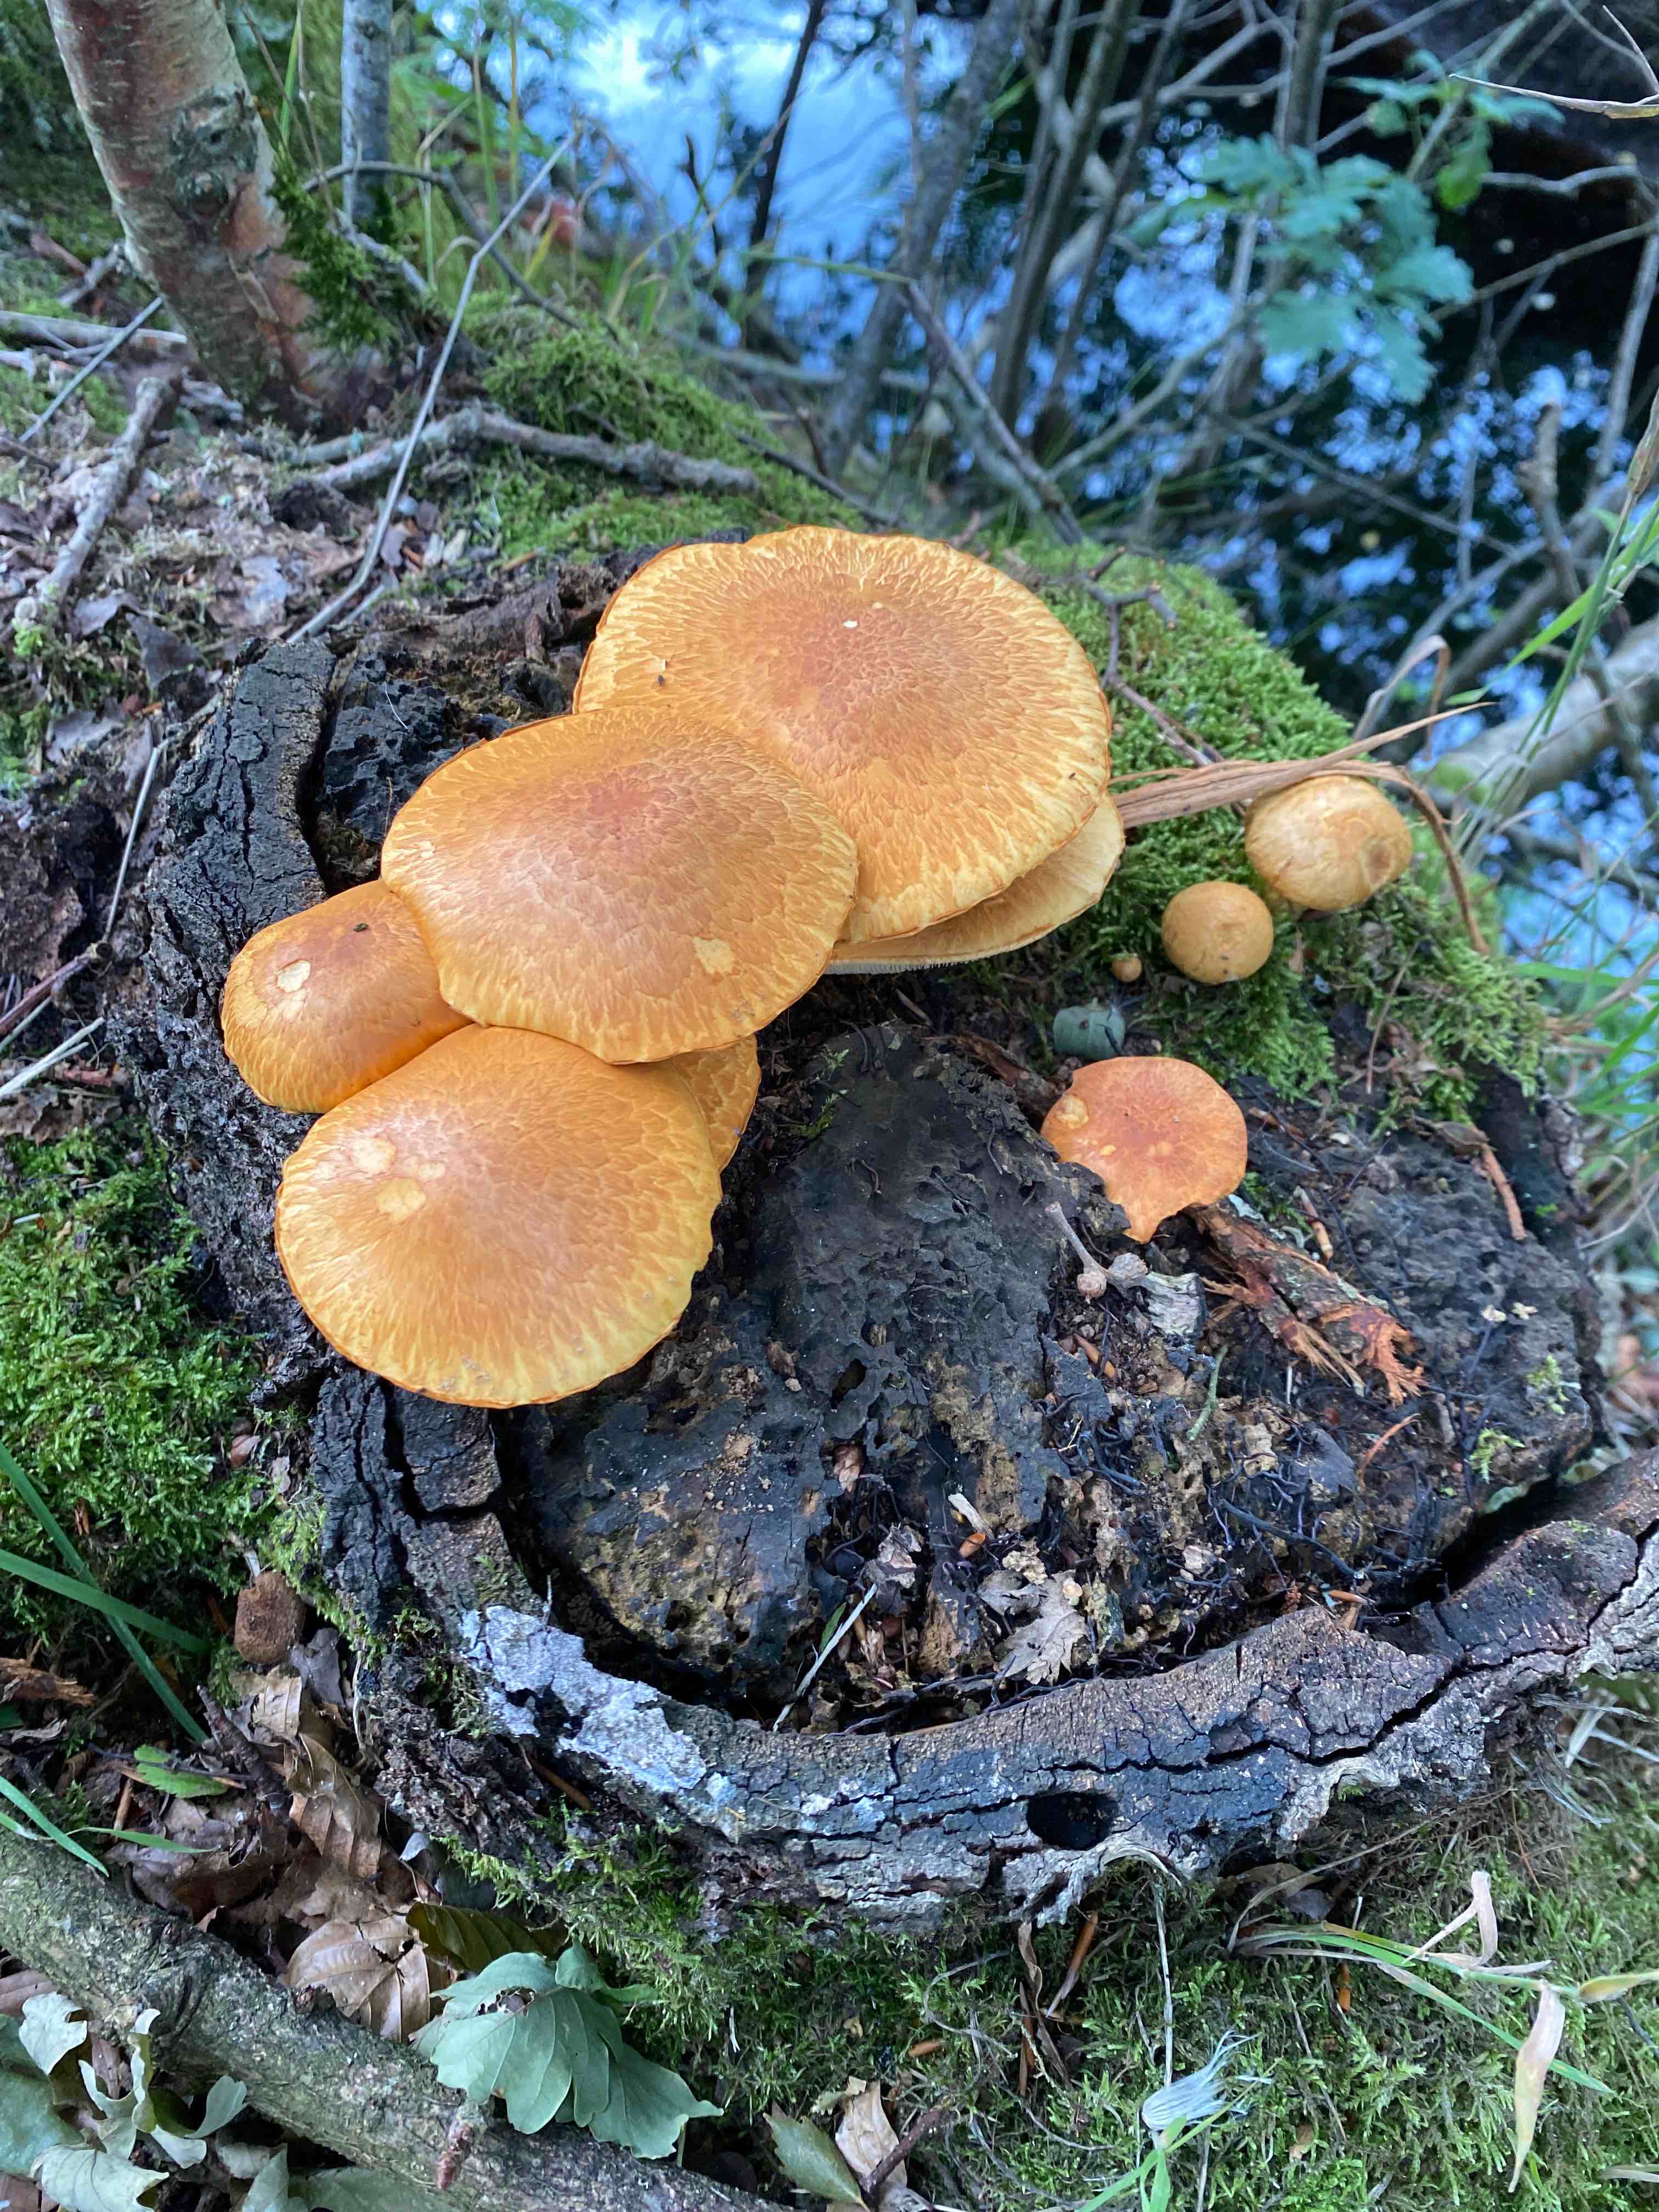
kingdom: Fungi
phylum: Basidiomycota
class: Agaricomycetes
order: Agaricales
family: Hymenogastraceae
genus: Gymnopilus
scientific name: Gymnopilus spectabilis
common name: fibret flammehat
